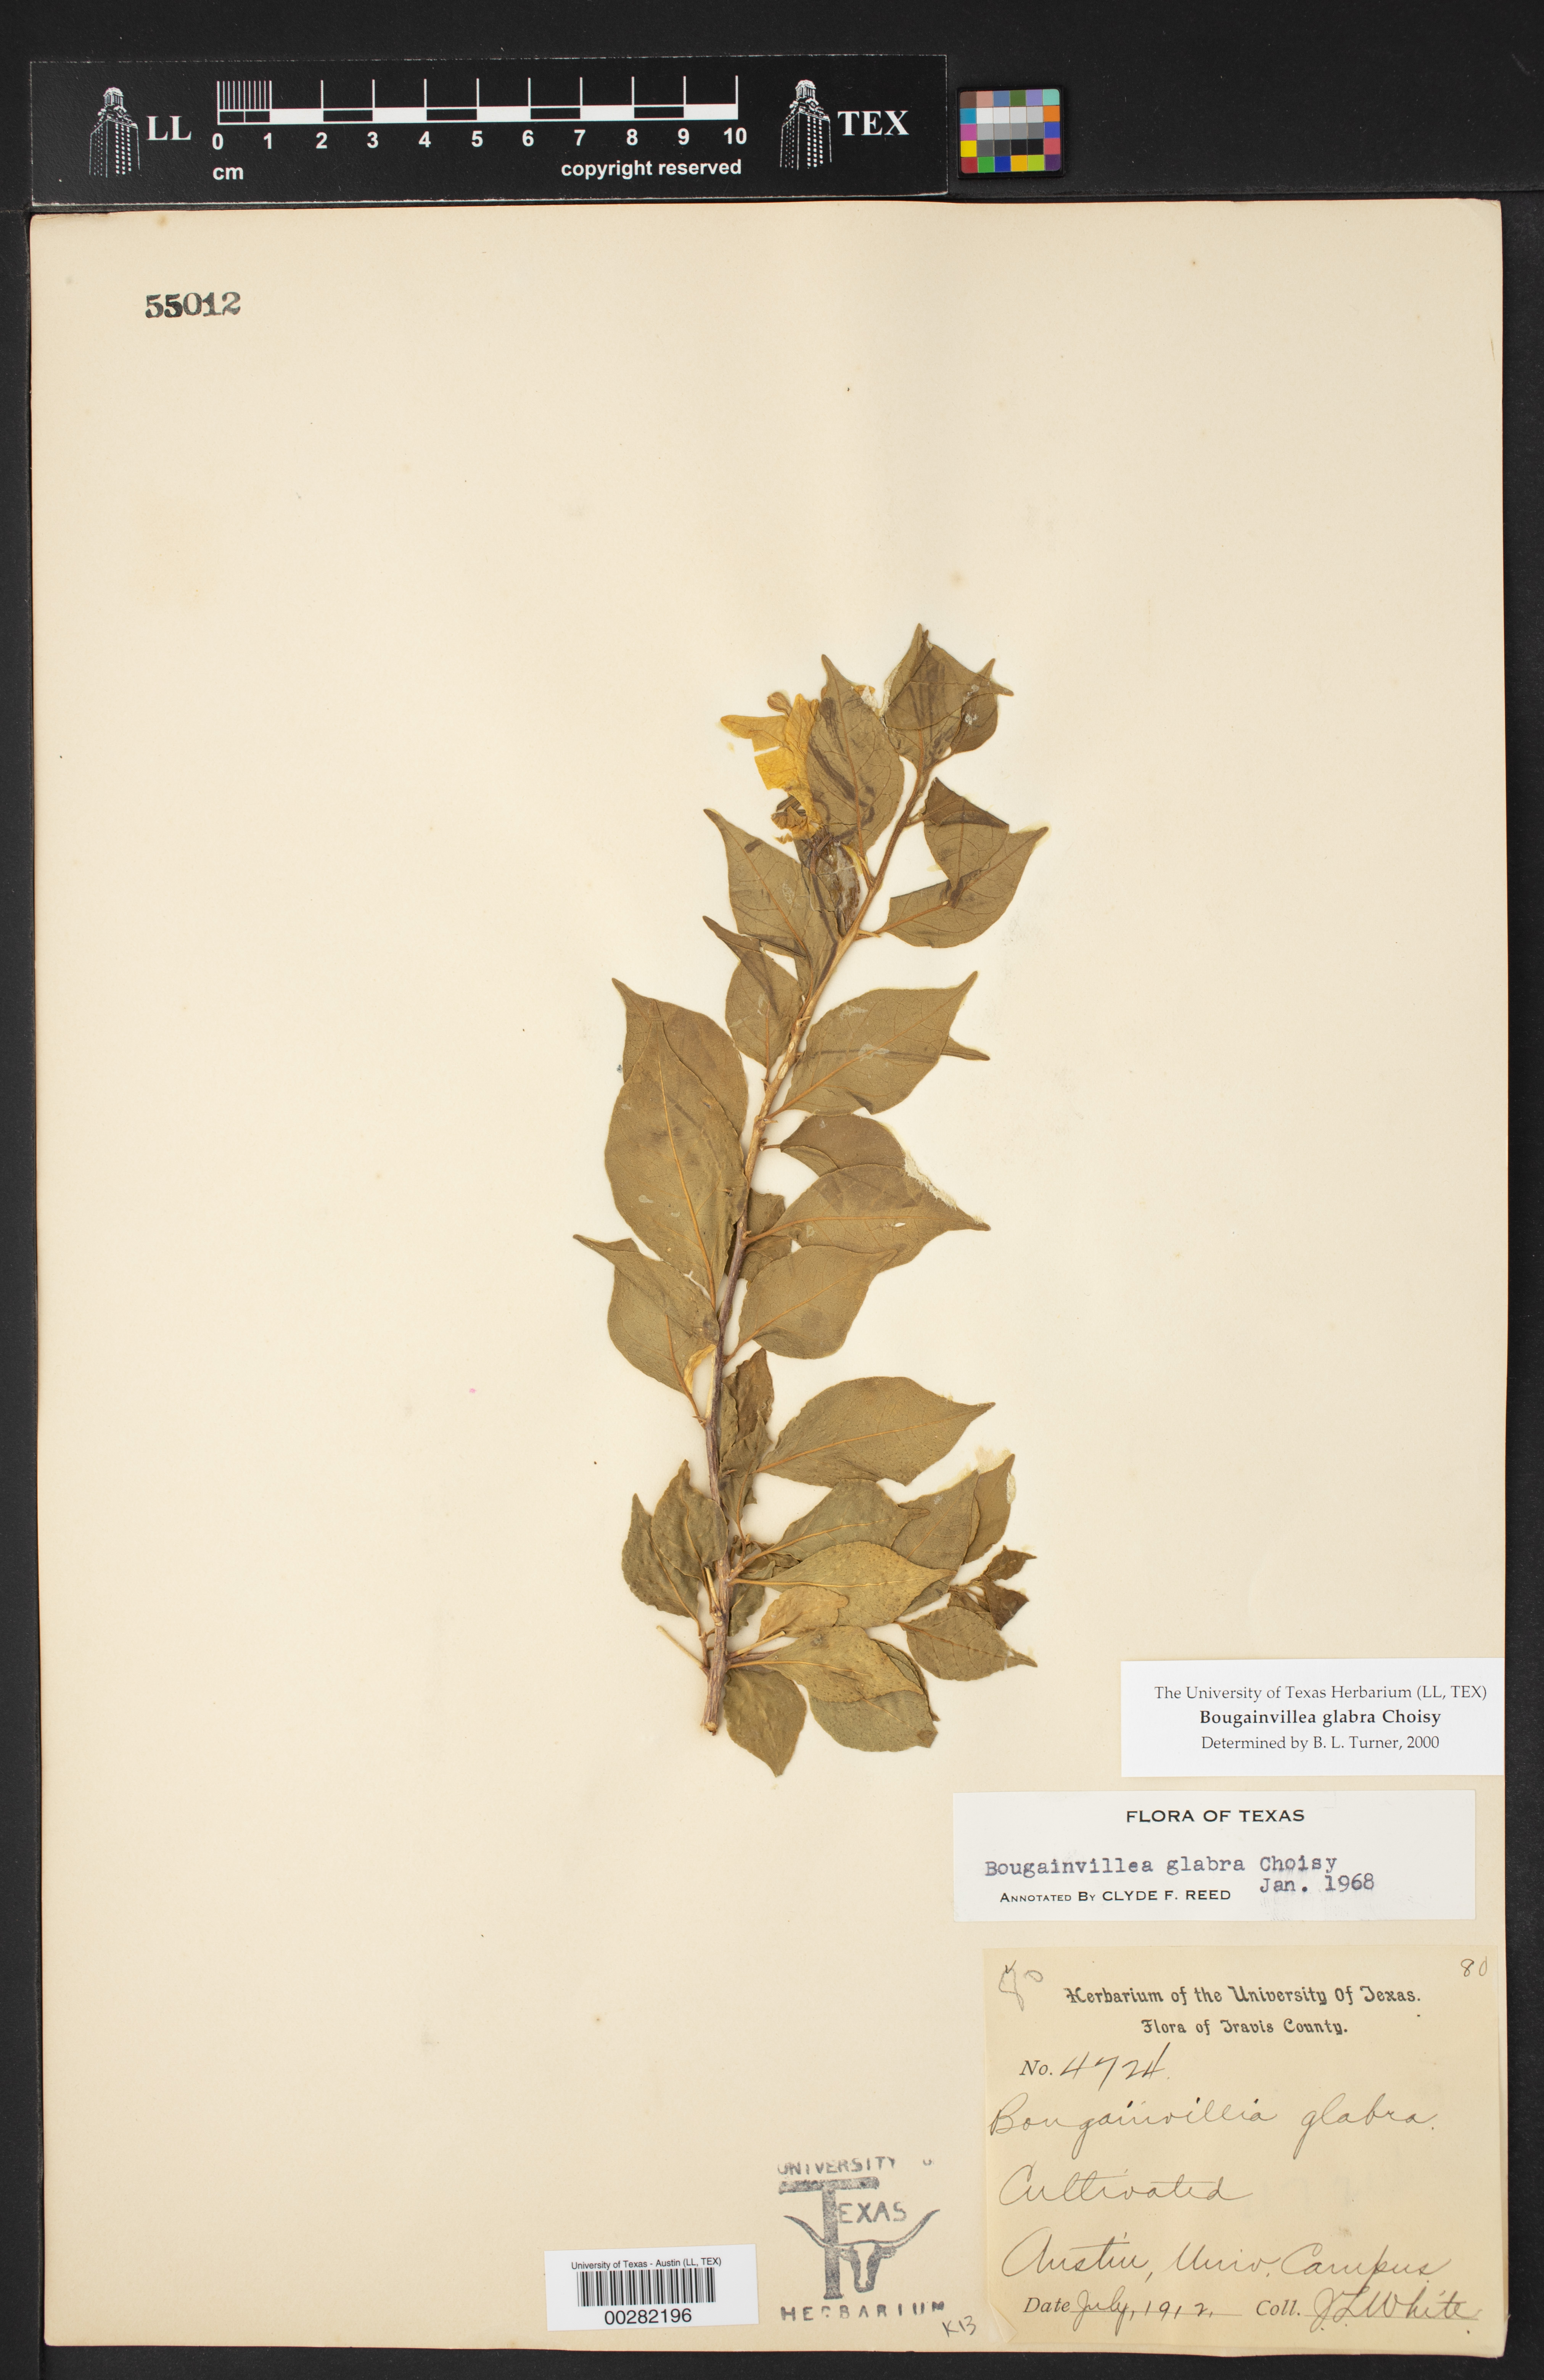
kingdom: Plantae
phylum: Tracheophyta
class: Magnoliopsida
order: Caryophyllales
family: Nyctaginaceae
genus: Bougainvillea
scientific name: Bougainvillea glabra
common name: Paperflower
